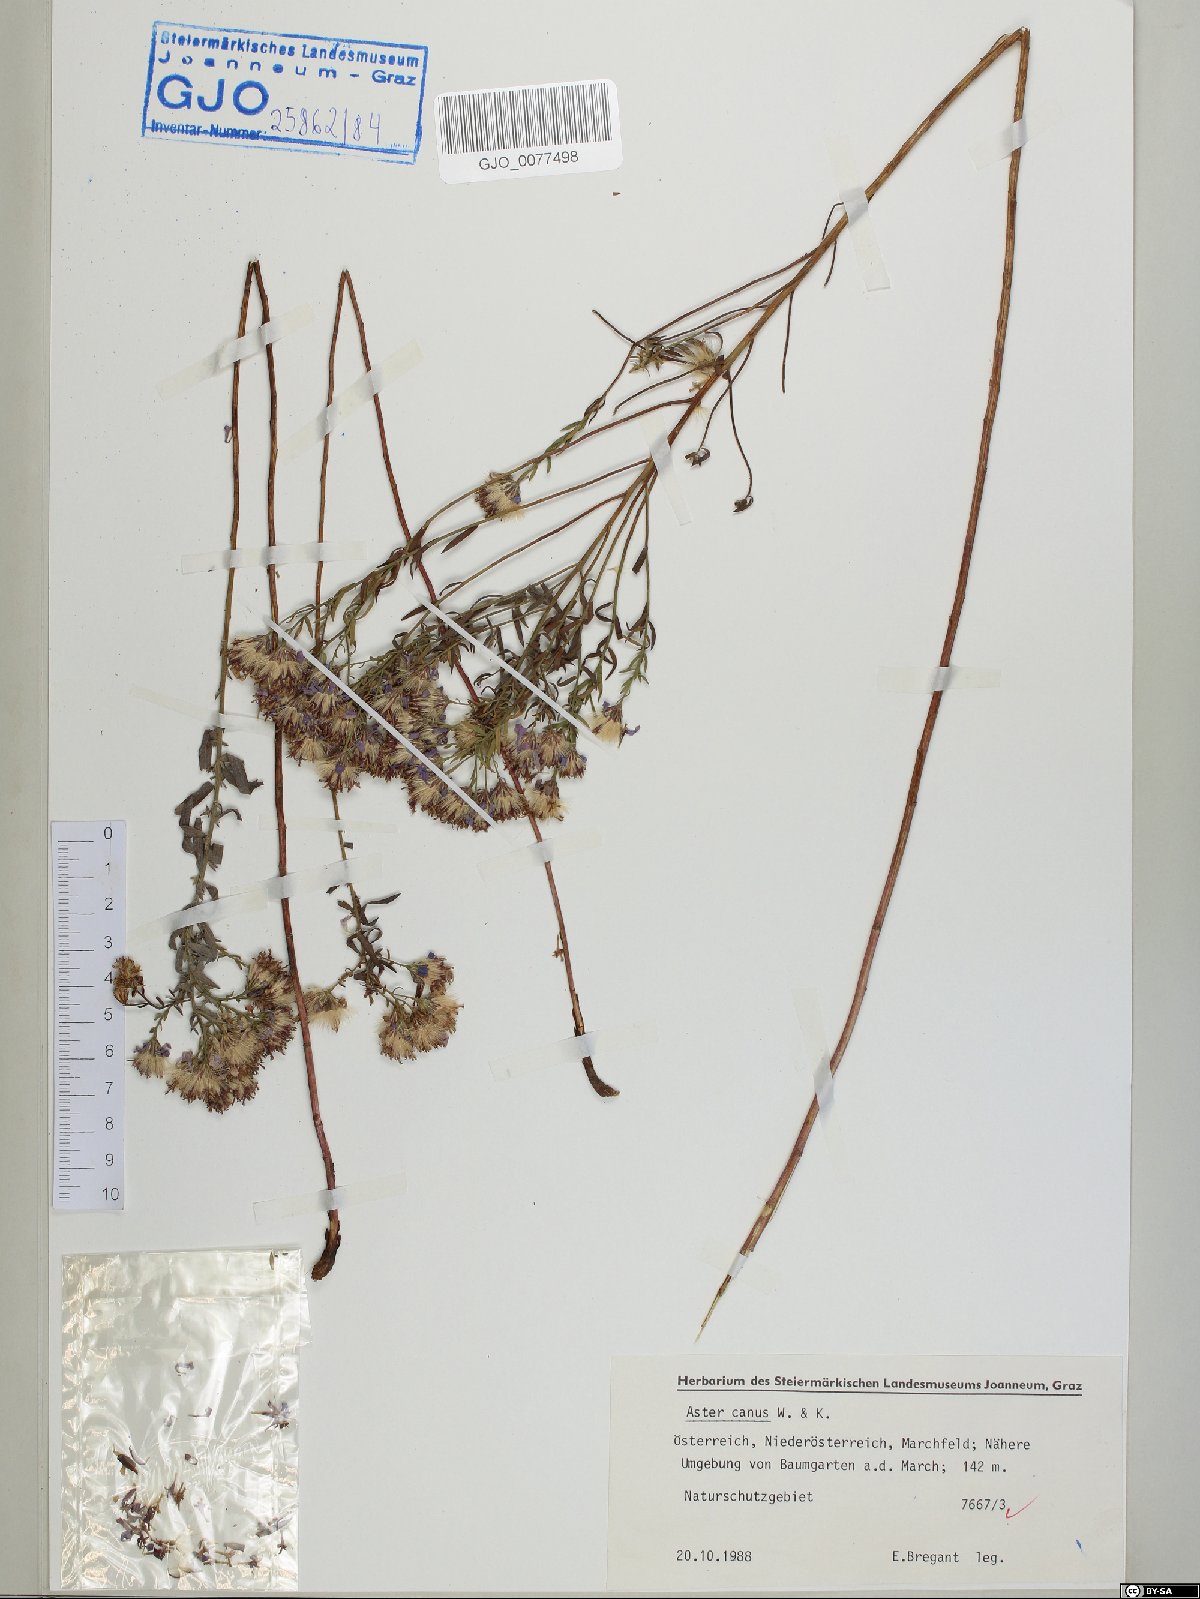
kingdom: Plantae
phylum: Tracheophyta
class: Magnoliopsida
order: Asterales
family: Asteraceae
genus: Galatella
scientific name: Galatella cana
